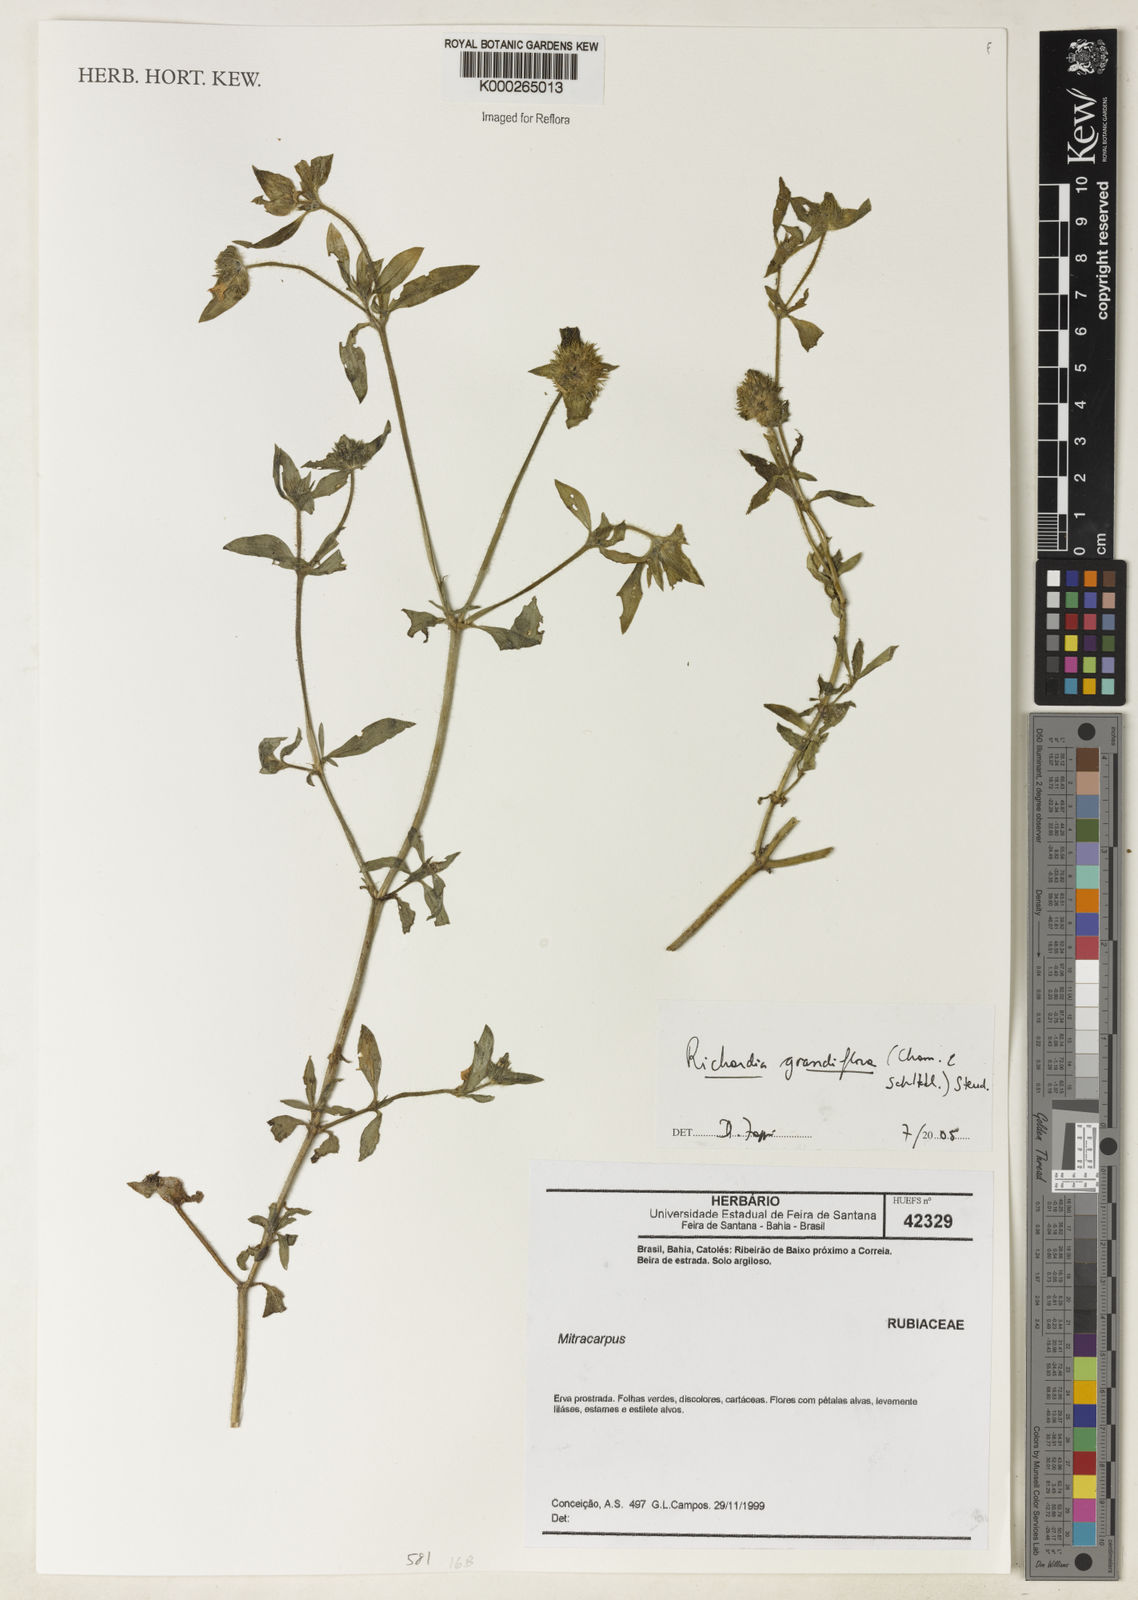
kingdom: Plantae
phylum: Tracheophyta
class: Magnoliopsida
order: Gentianales
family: Rubiaceae
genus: Richardia
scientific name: Richardia grandiflora
